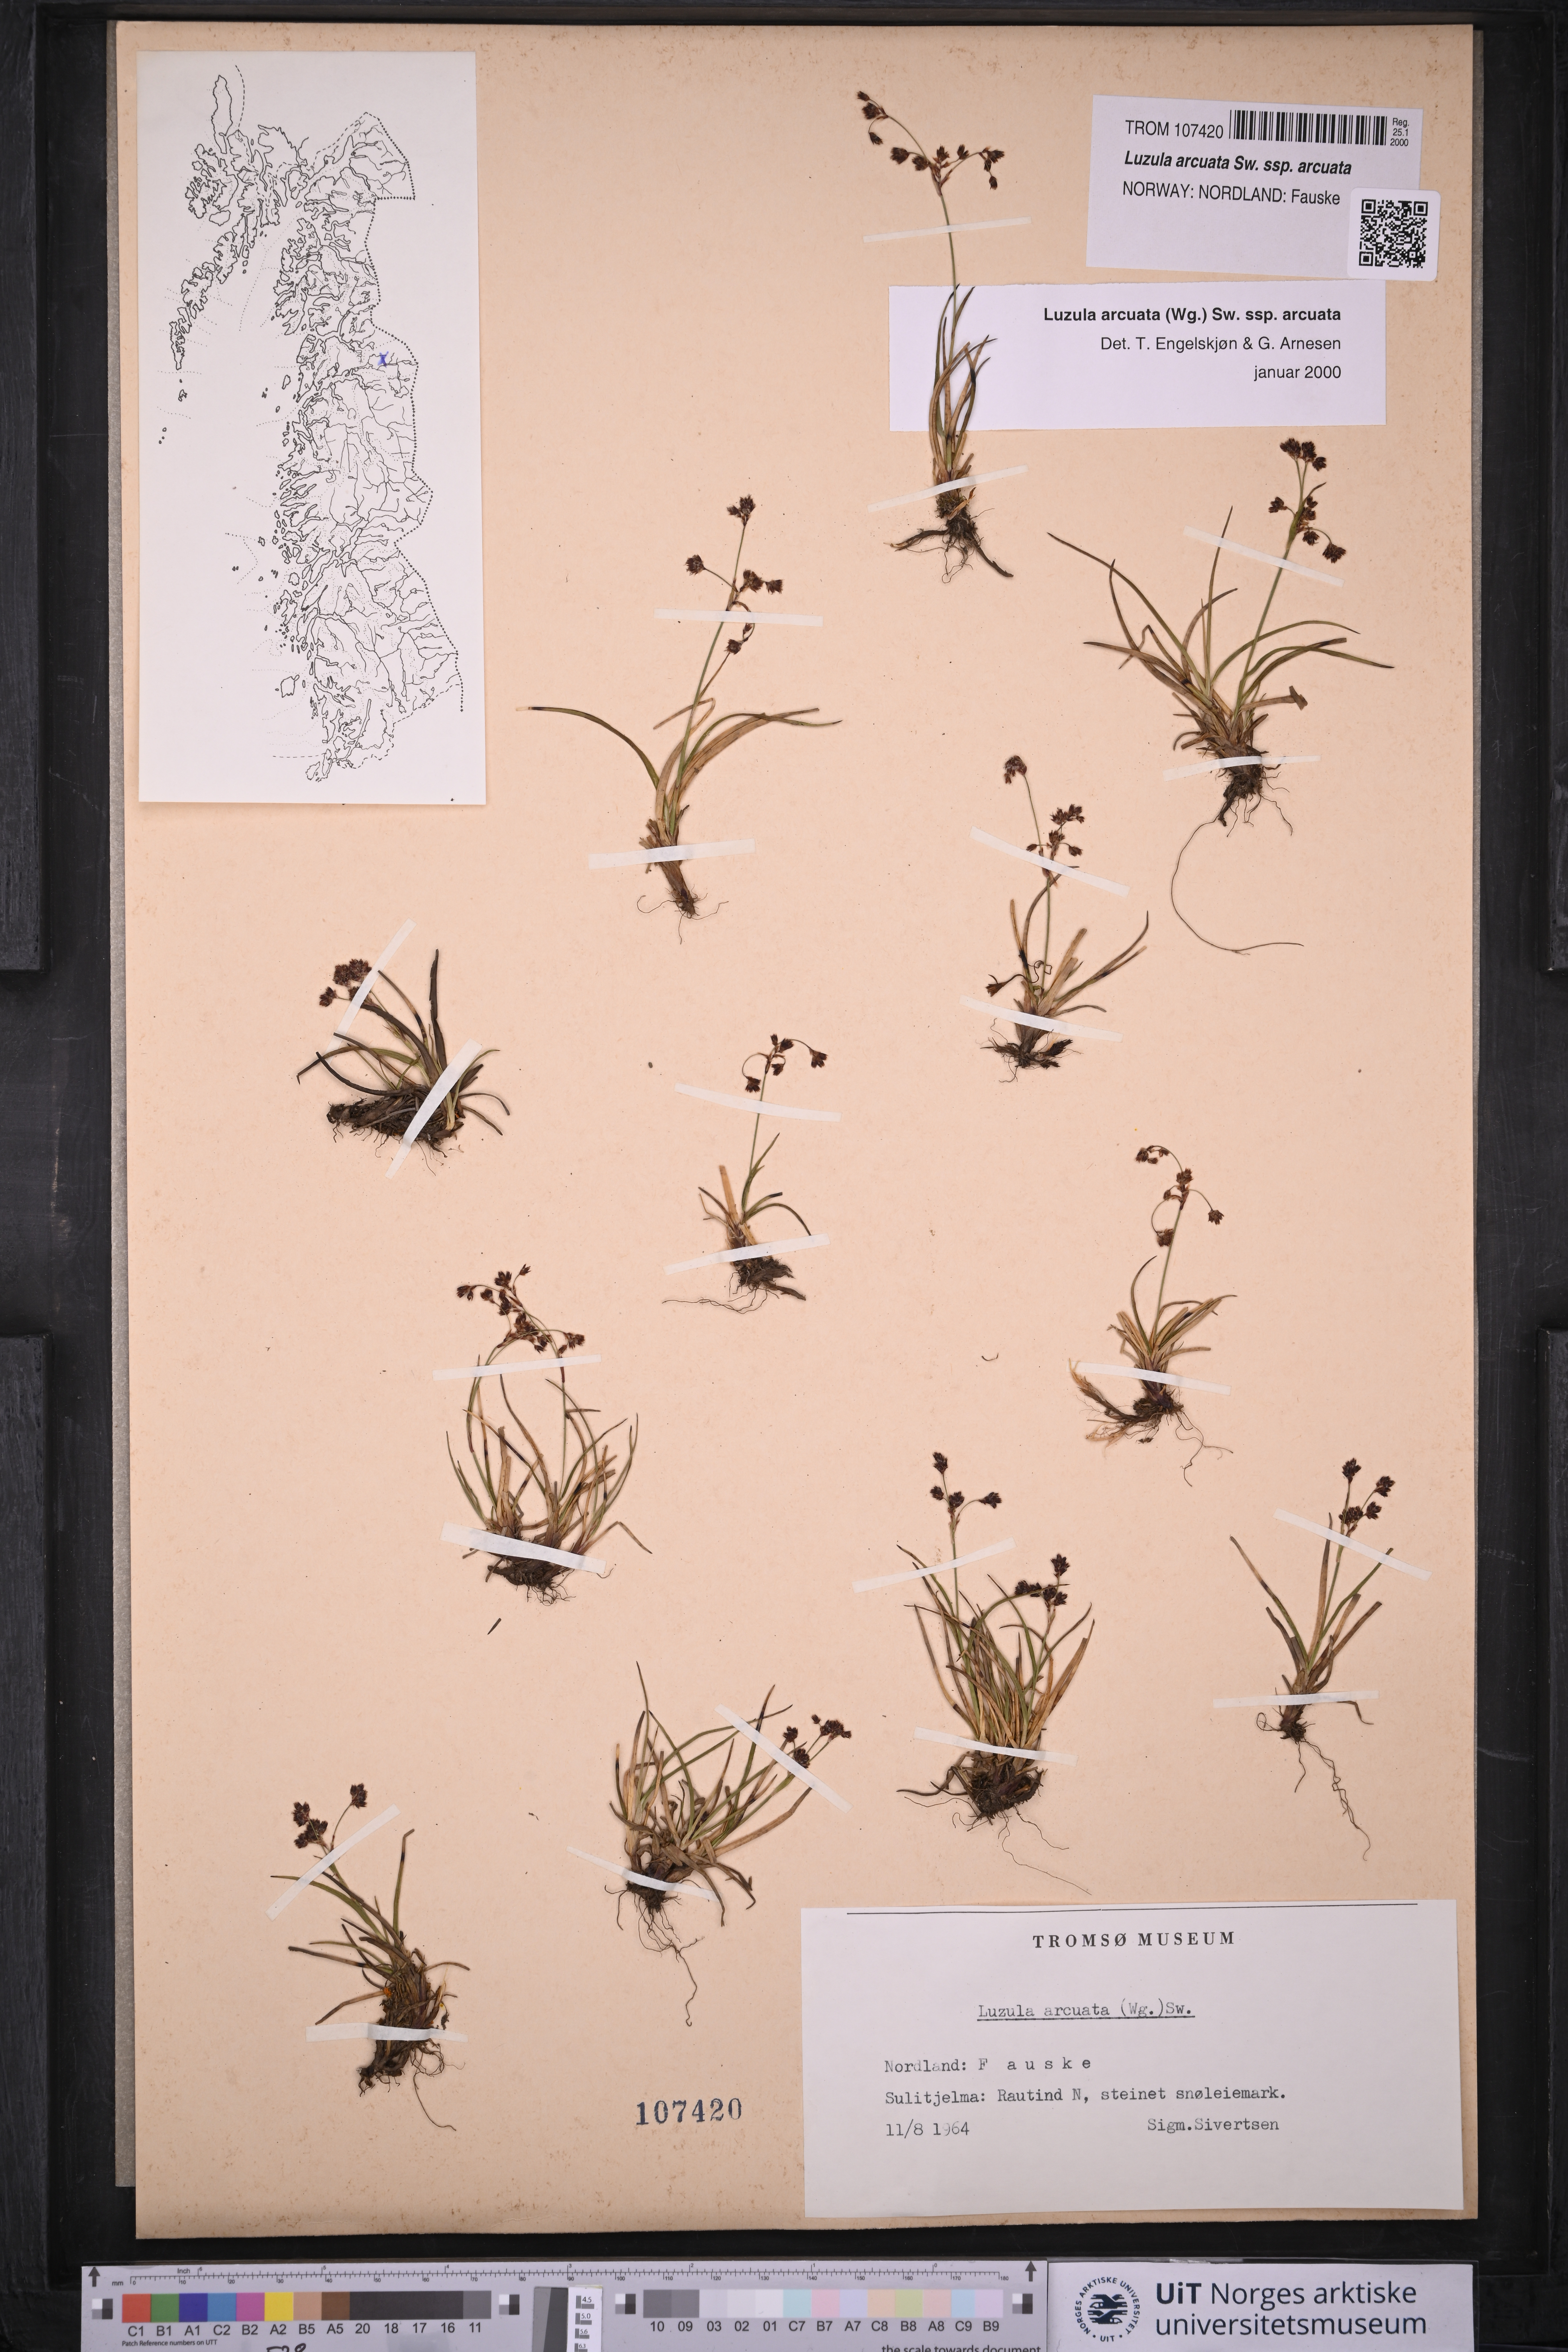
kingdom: Plantae
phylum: Tracheophyta
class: Liliopsida
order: Poales
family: Juncaceae
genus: Luzula
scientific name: Luzula arcuata
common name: Curved wood-rush
